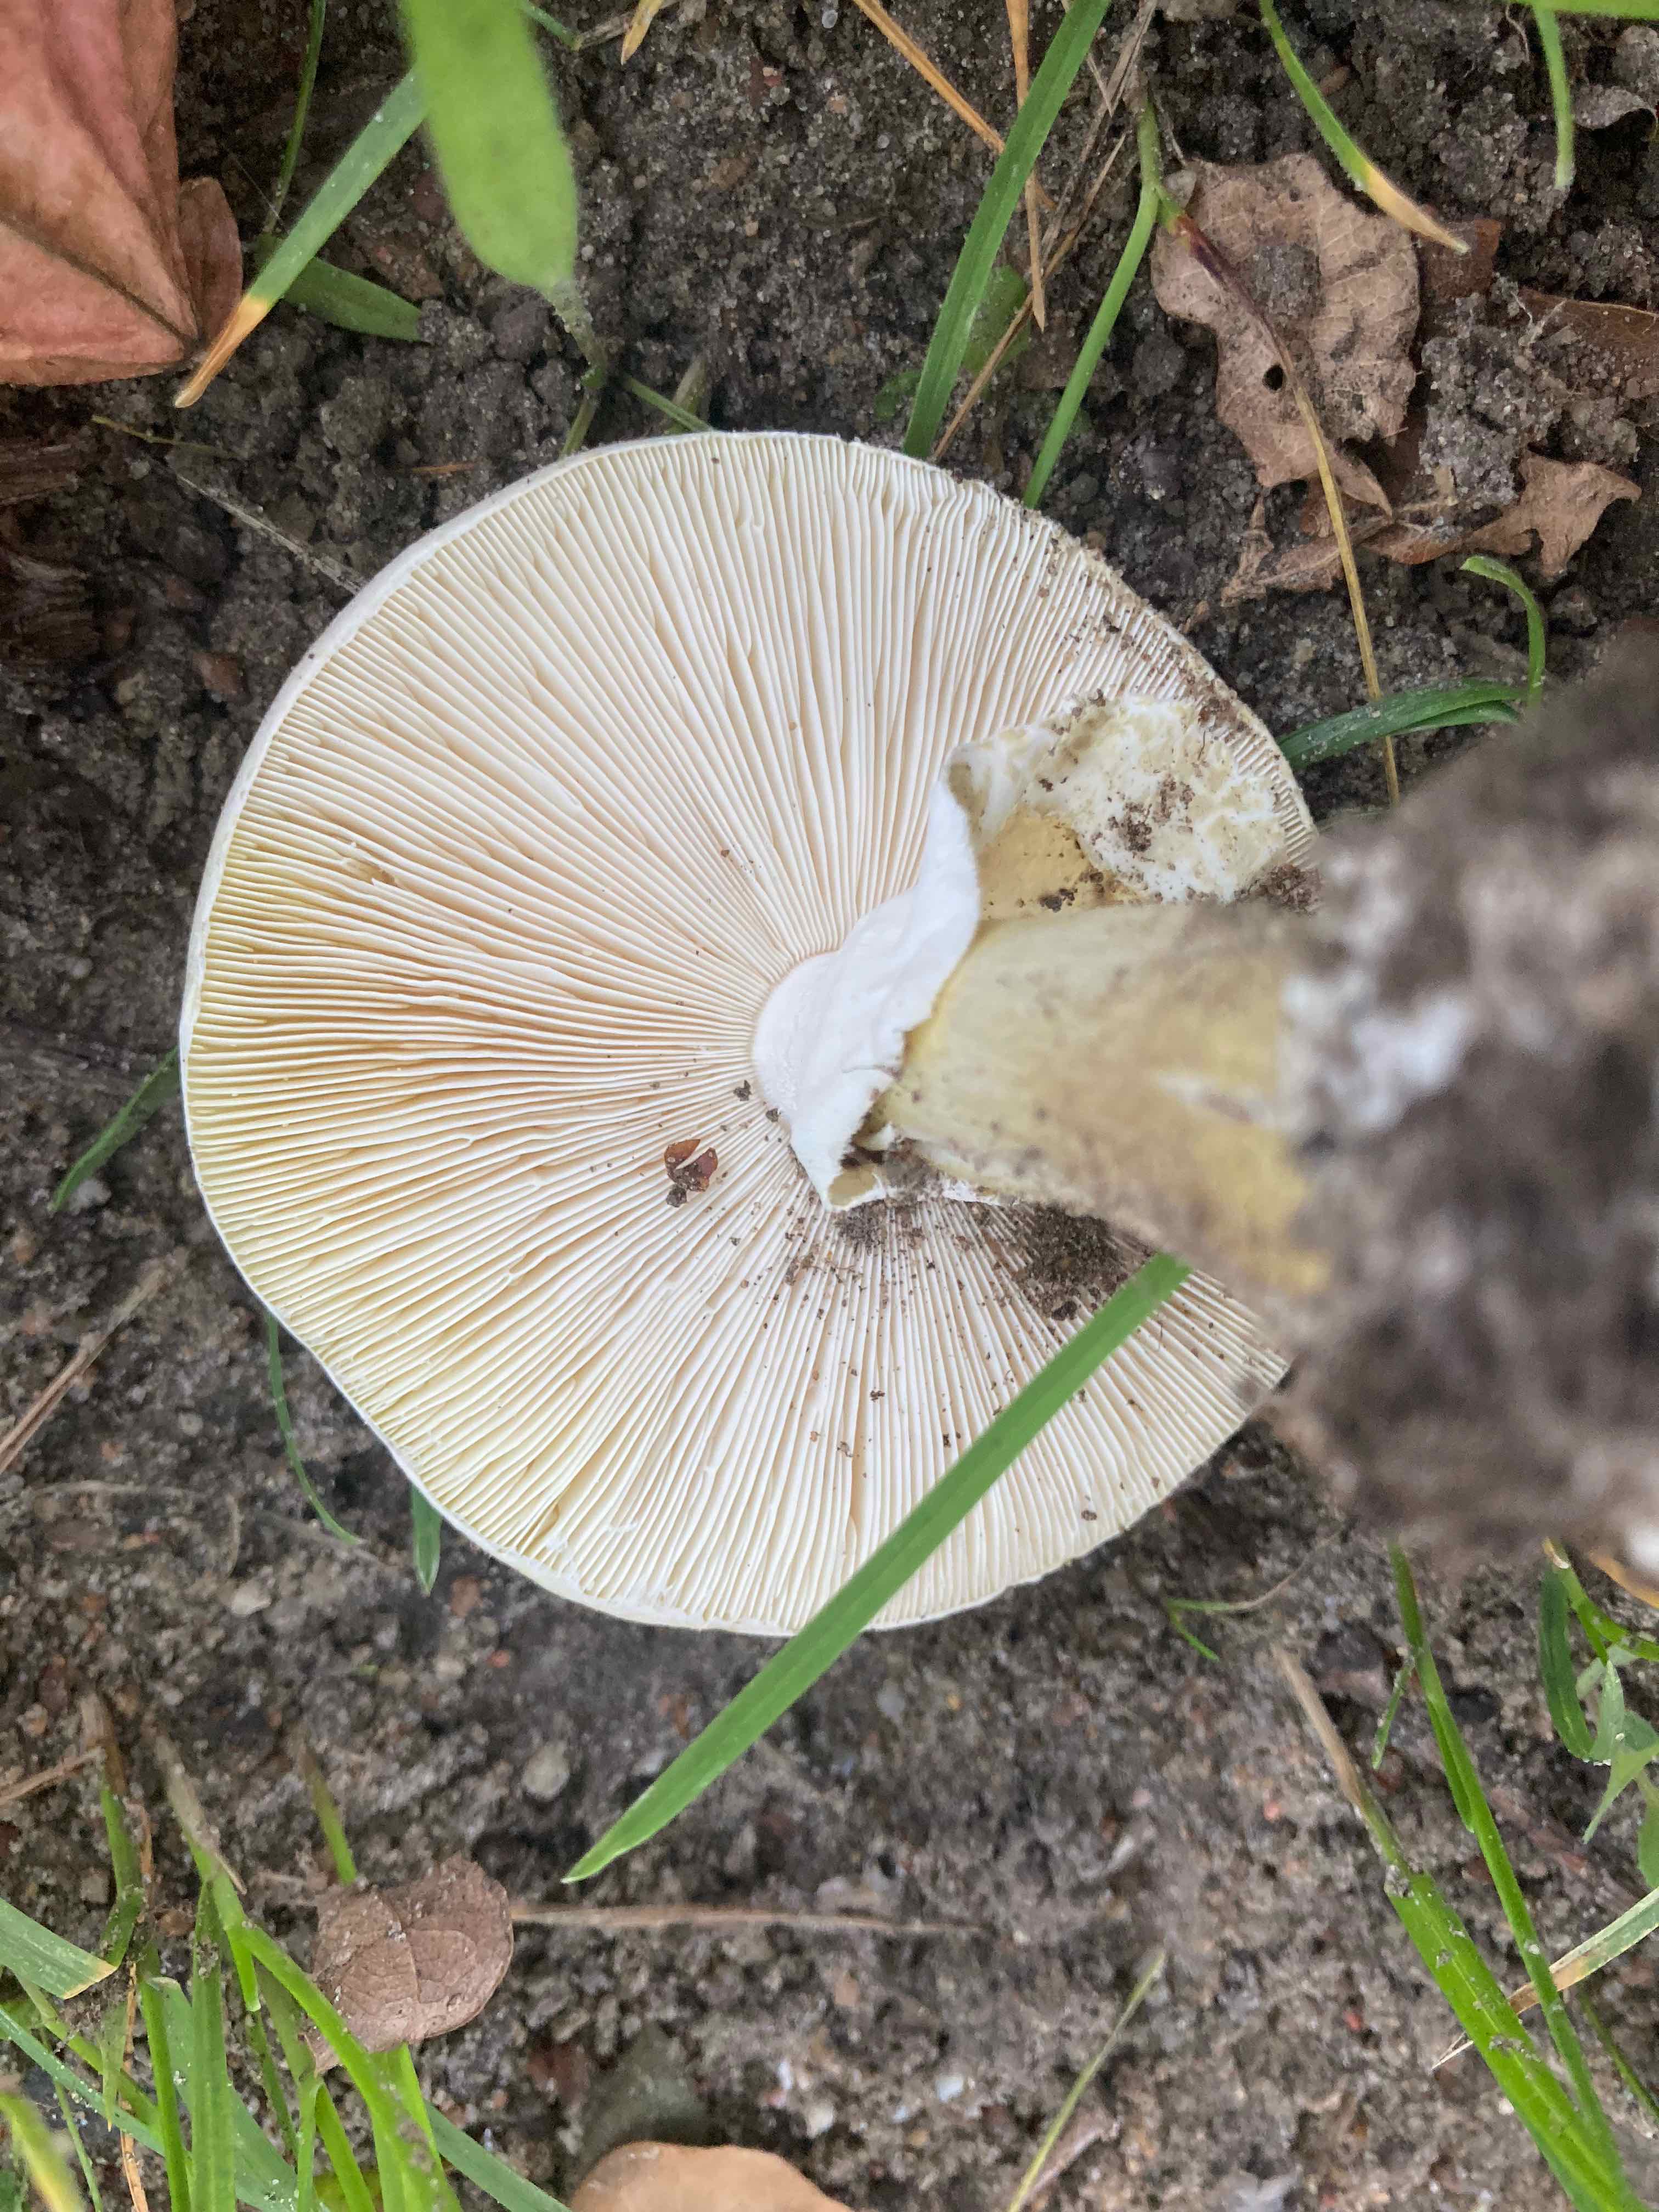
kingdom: Fungi
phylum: Basidiomycota
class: Agaricomycetes
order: Agaricales
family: Amanitaceae
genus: Amanita
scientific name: Amanita phalloides
